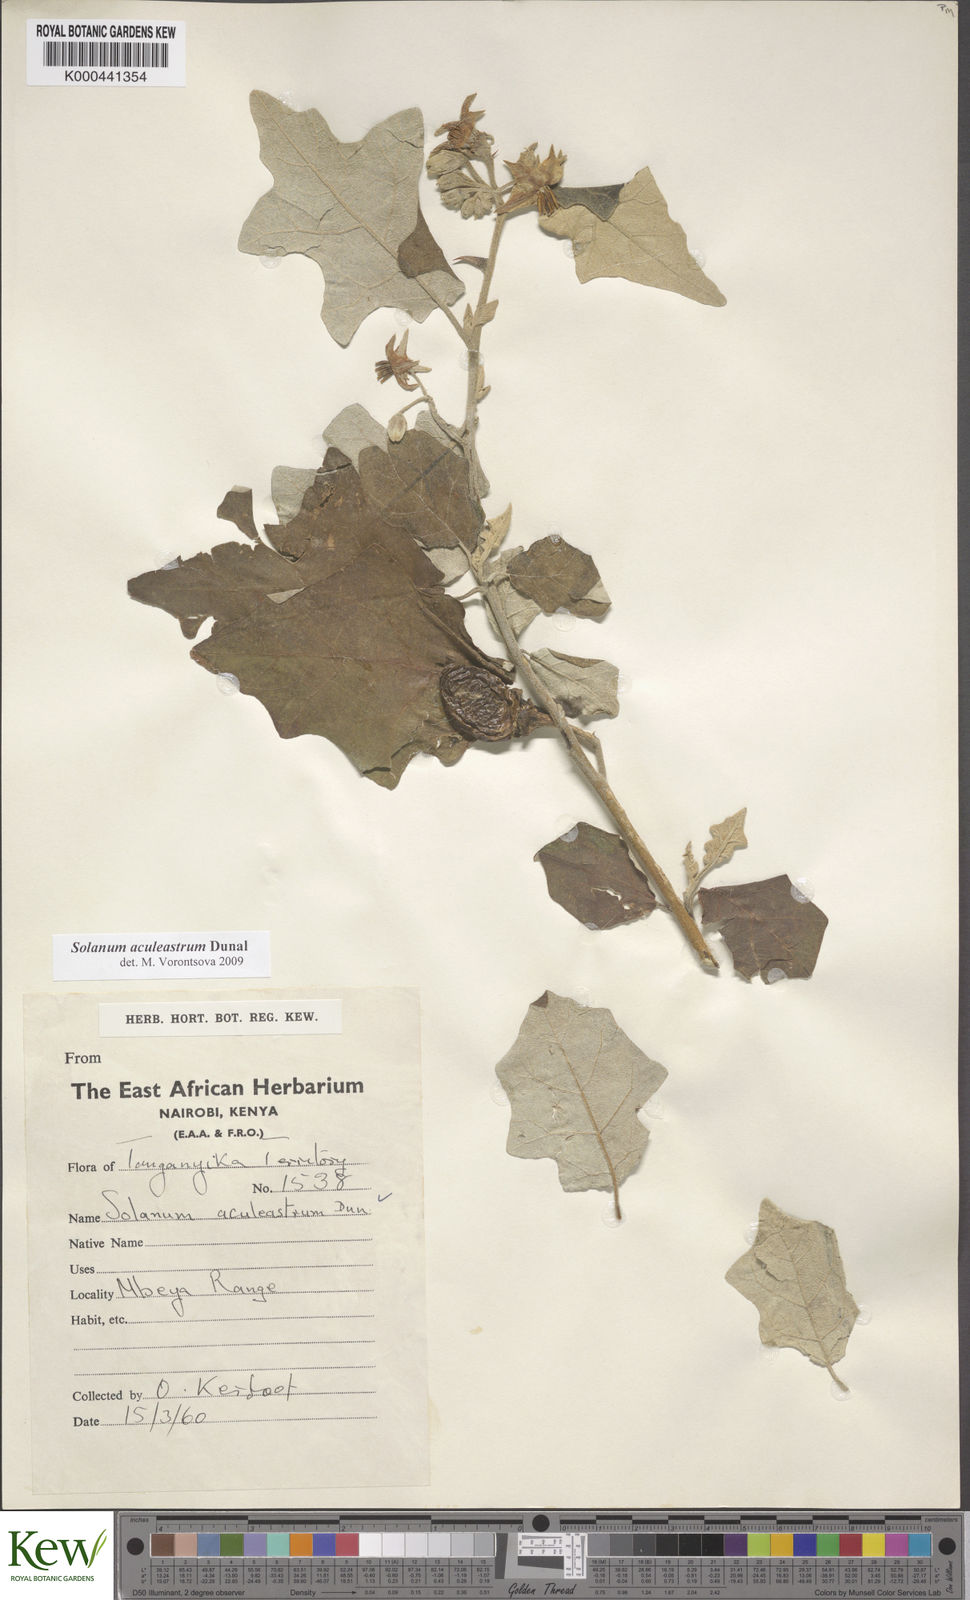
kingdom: Plantae
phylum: Tracheophyta
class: Magnoliopsida
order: Solanales
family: Solanaceae
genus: Solanum
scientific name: Solanum aculeastrum
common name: Goat bitter-apple
